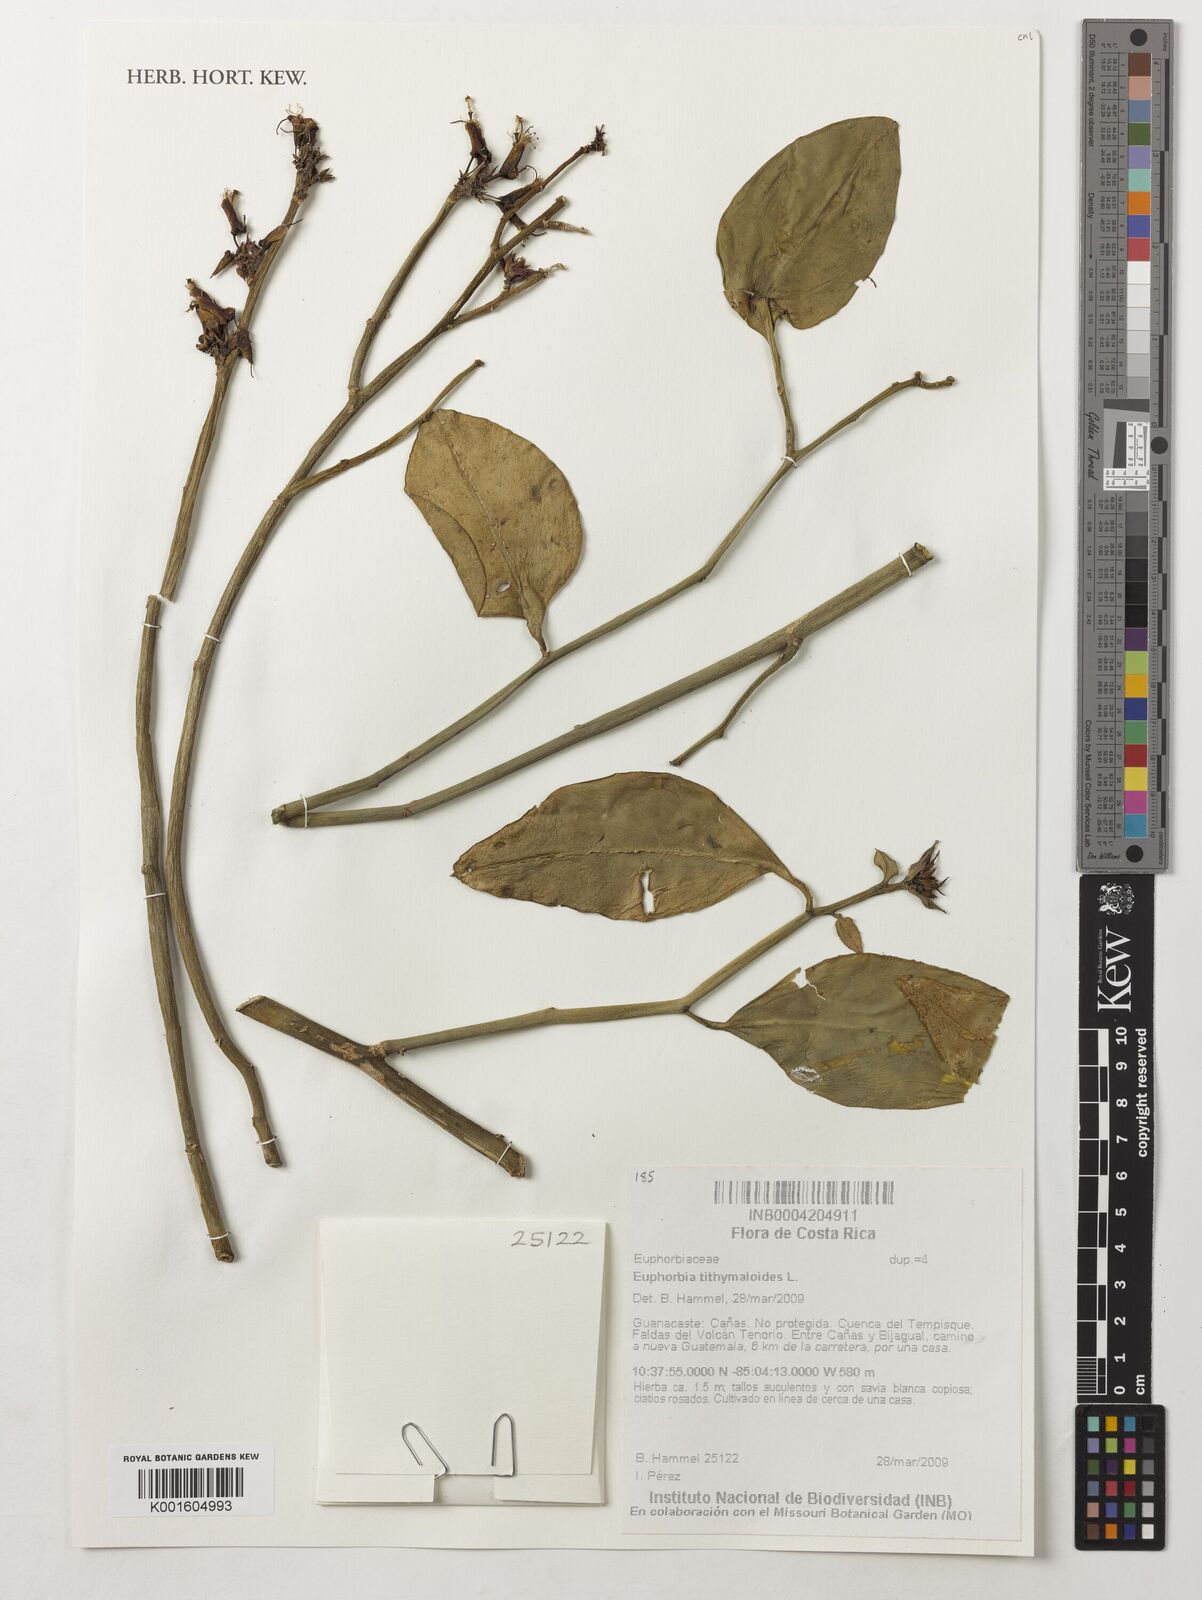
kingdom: Plantae
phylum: Tracheophyta
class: Magnoliopsida
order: Malpighiales
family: Euphorbiaceae
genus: Euphorbia
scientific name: Euphorbia tithymaloides
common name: Slipperplant
